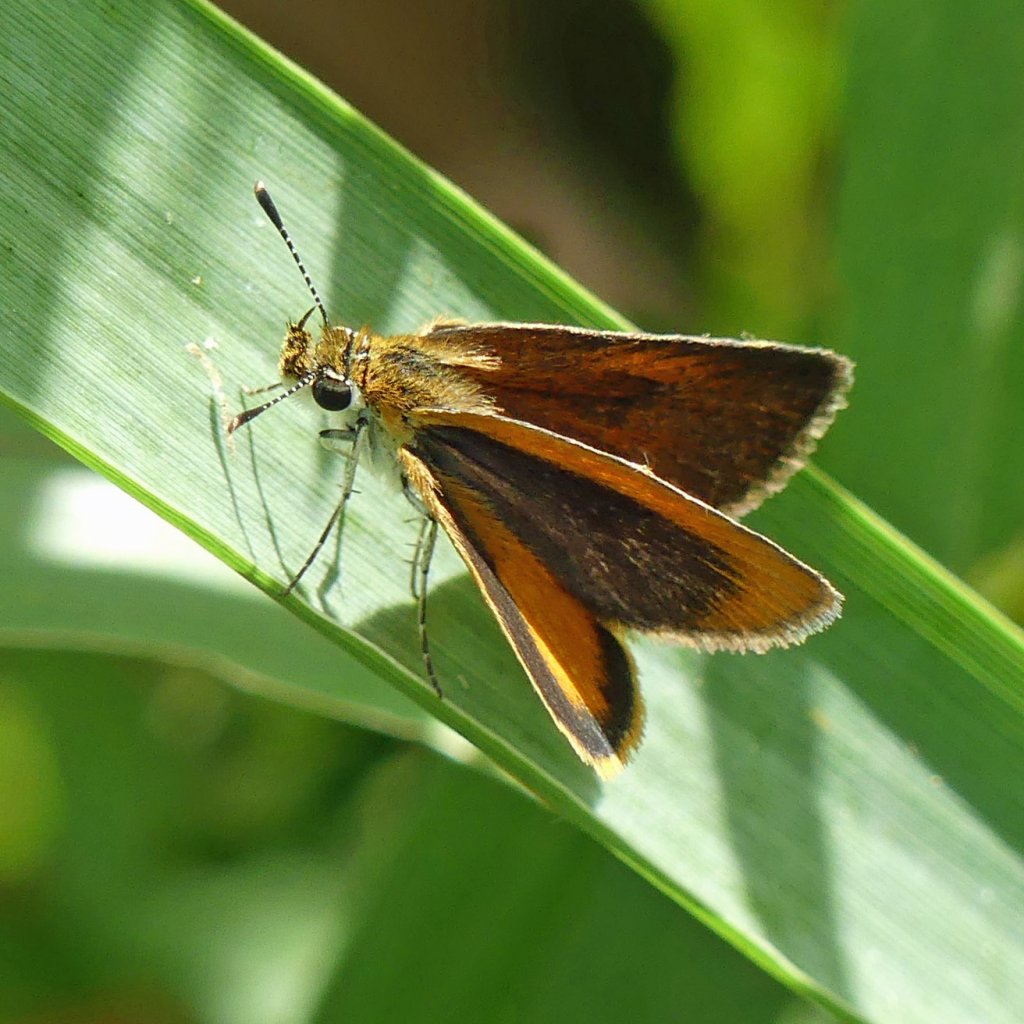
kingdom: Animalia
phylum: Arthropoda
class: Insecta
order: Lepidoptera
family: Hesperiidae
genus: Ancyloxypha
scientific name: Ancyloxypha numitor
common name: Least Skipper
